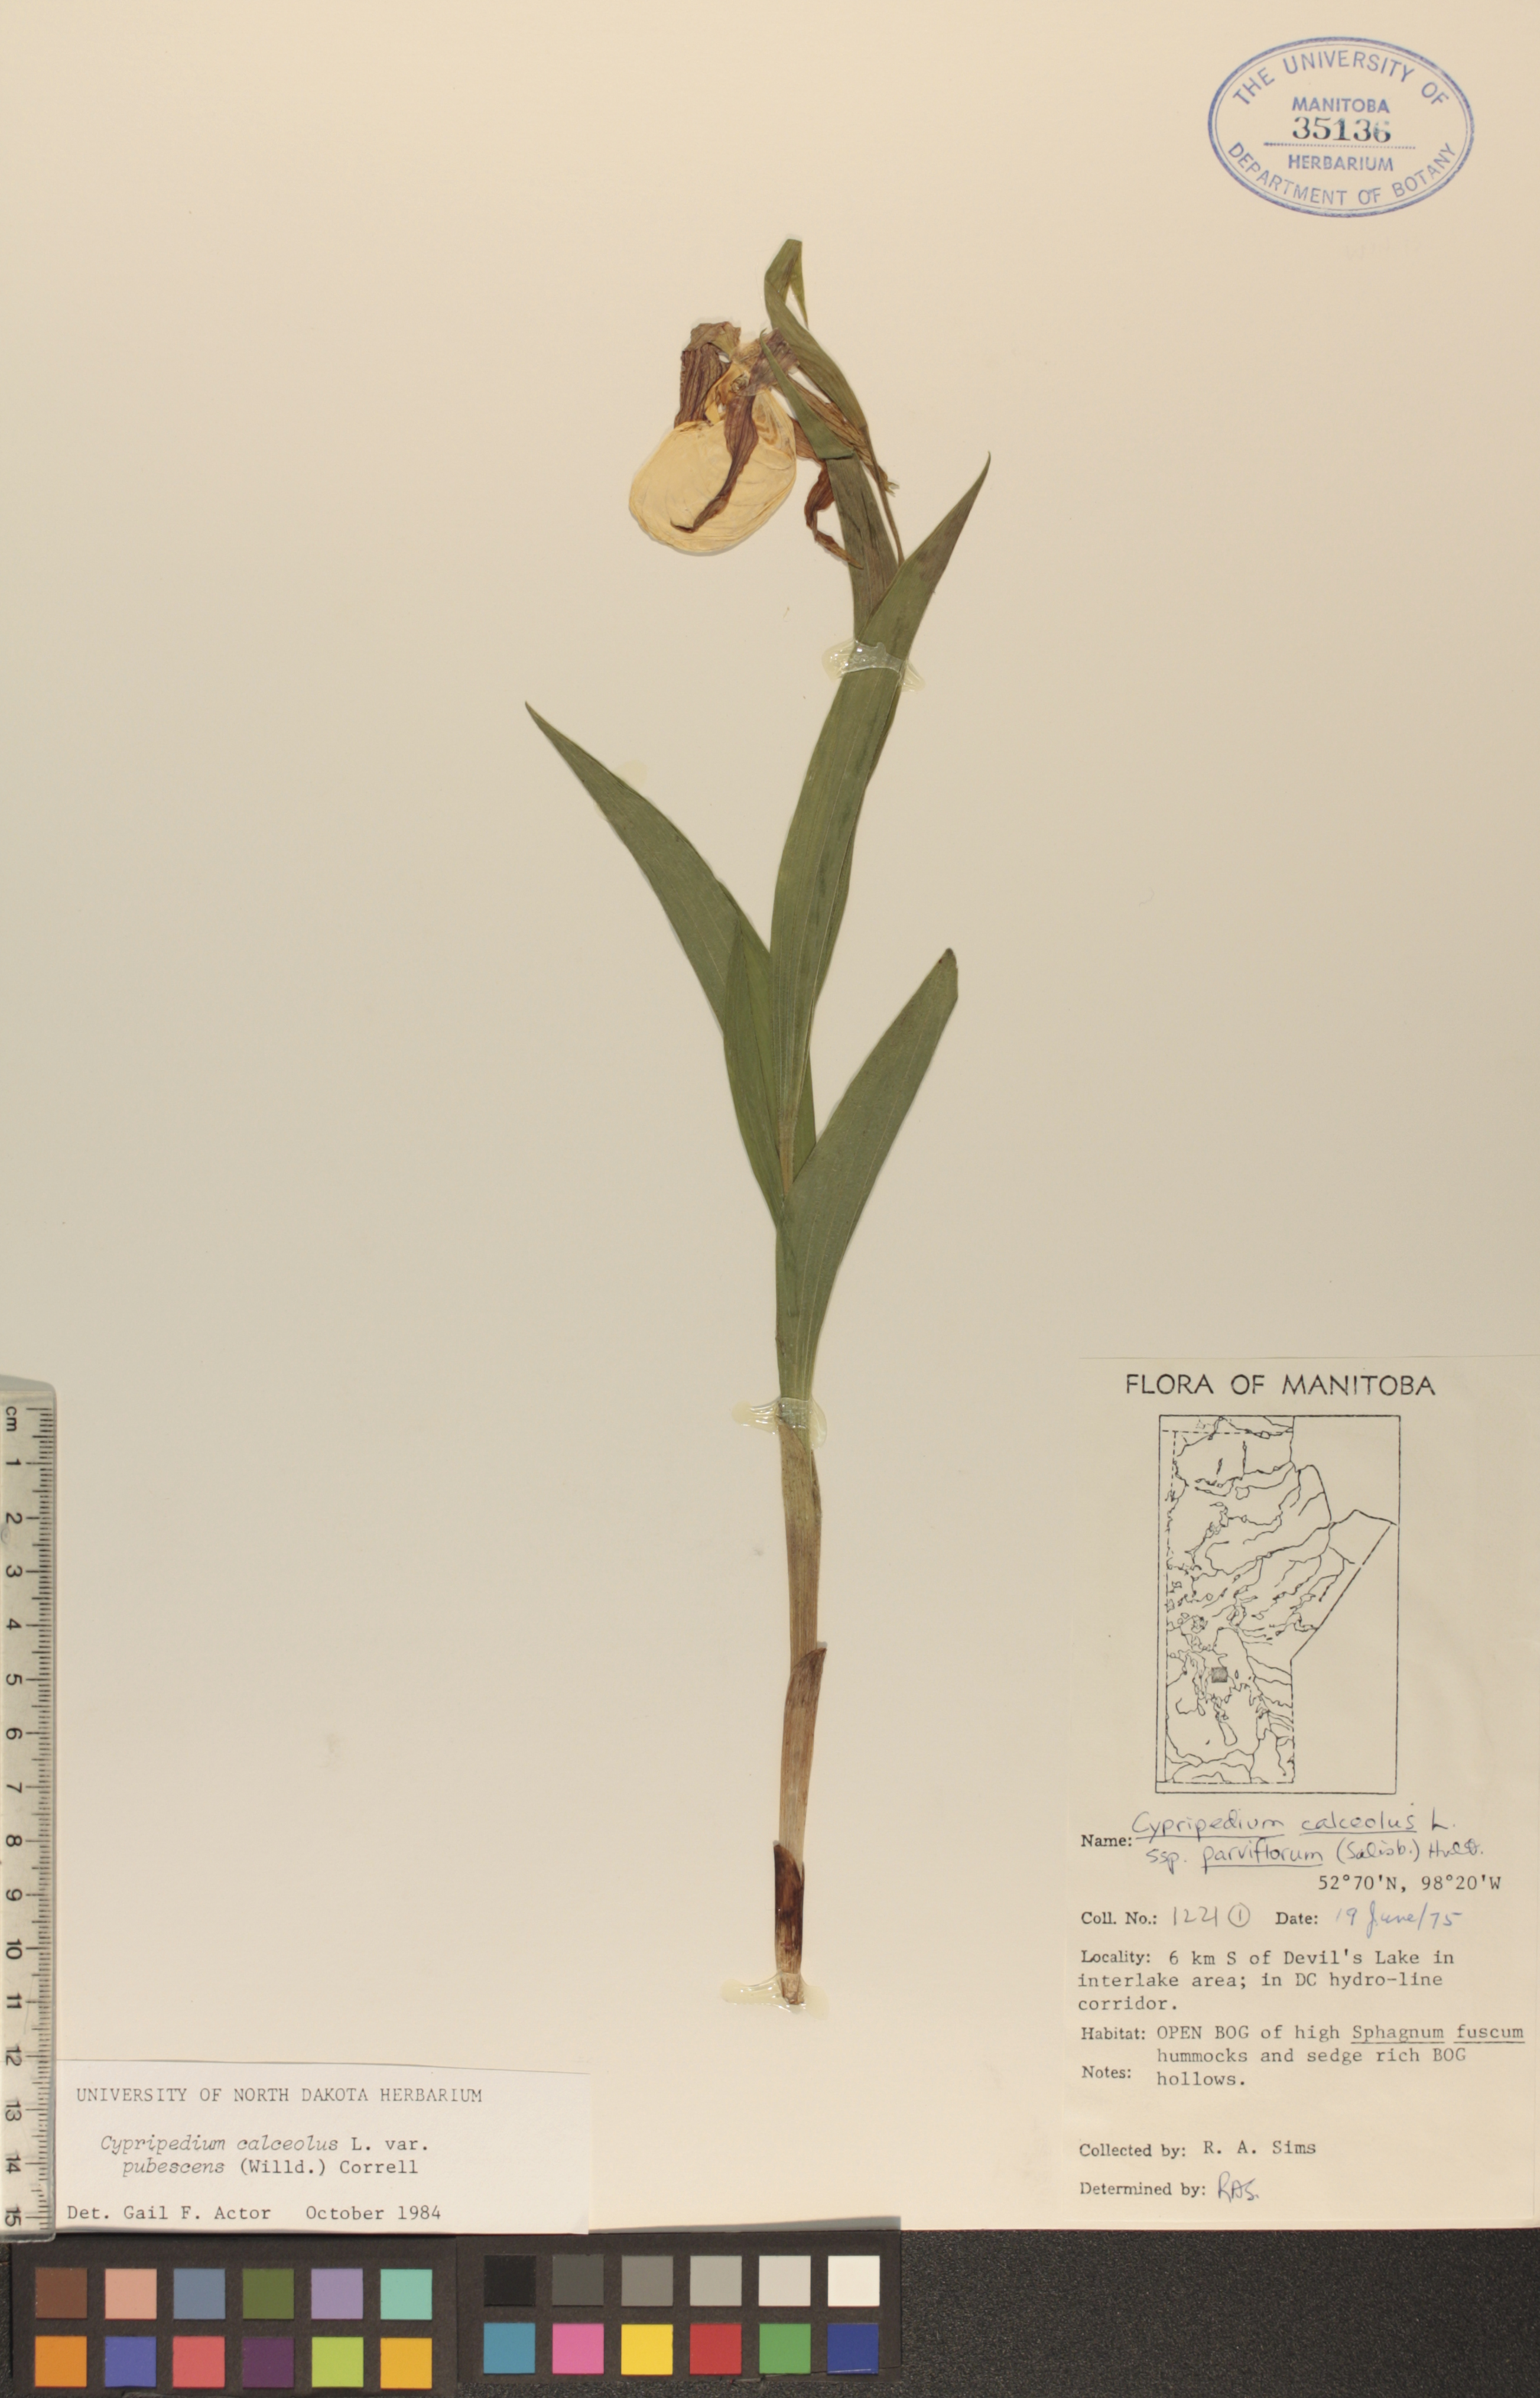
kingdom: Plantae
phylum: Tracheophyta
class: Liliopsida
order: Asparagales
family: Orchidaceae
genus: Cypripedium
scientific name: Cypripedium parviflorum
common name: American yellow lady's-slipper
